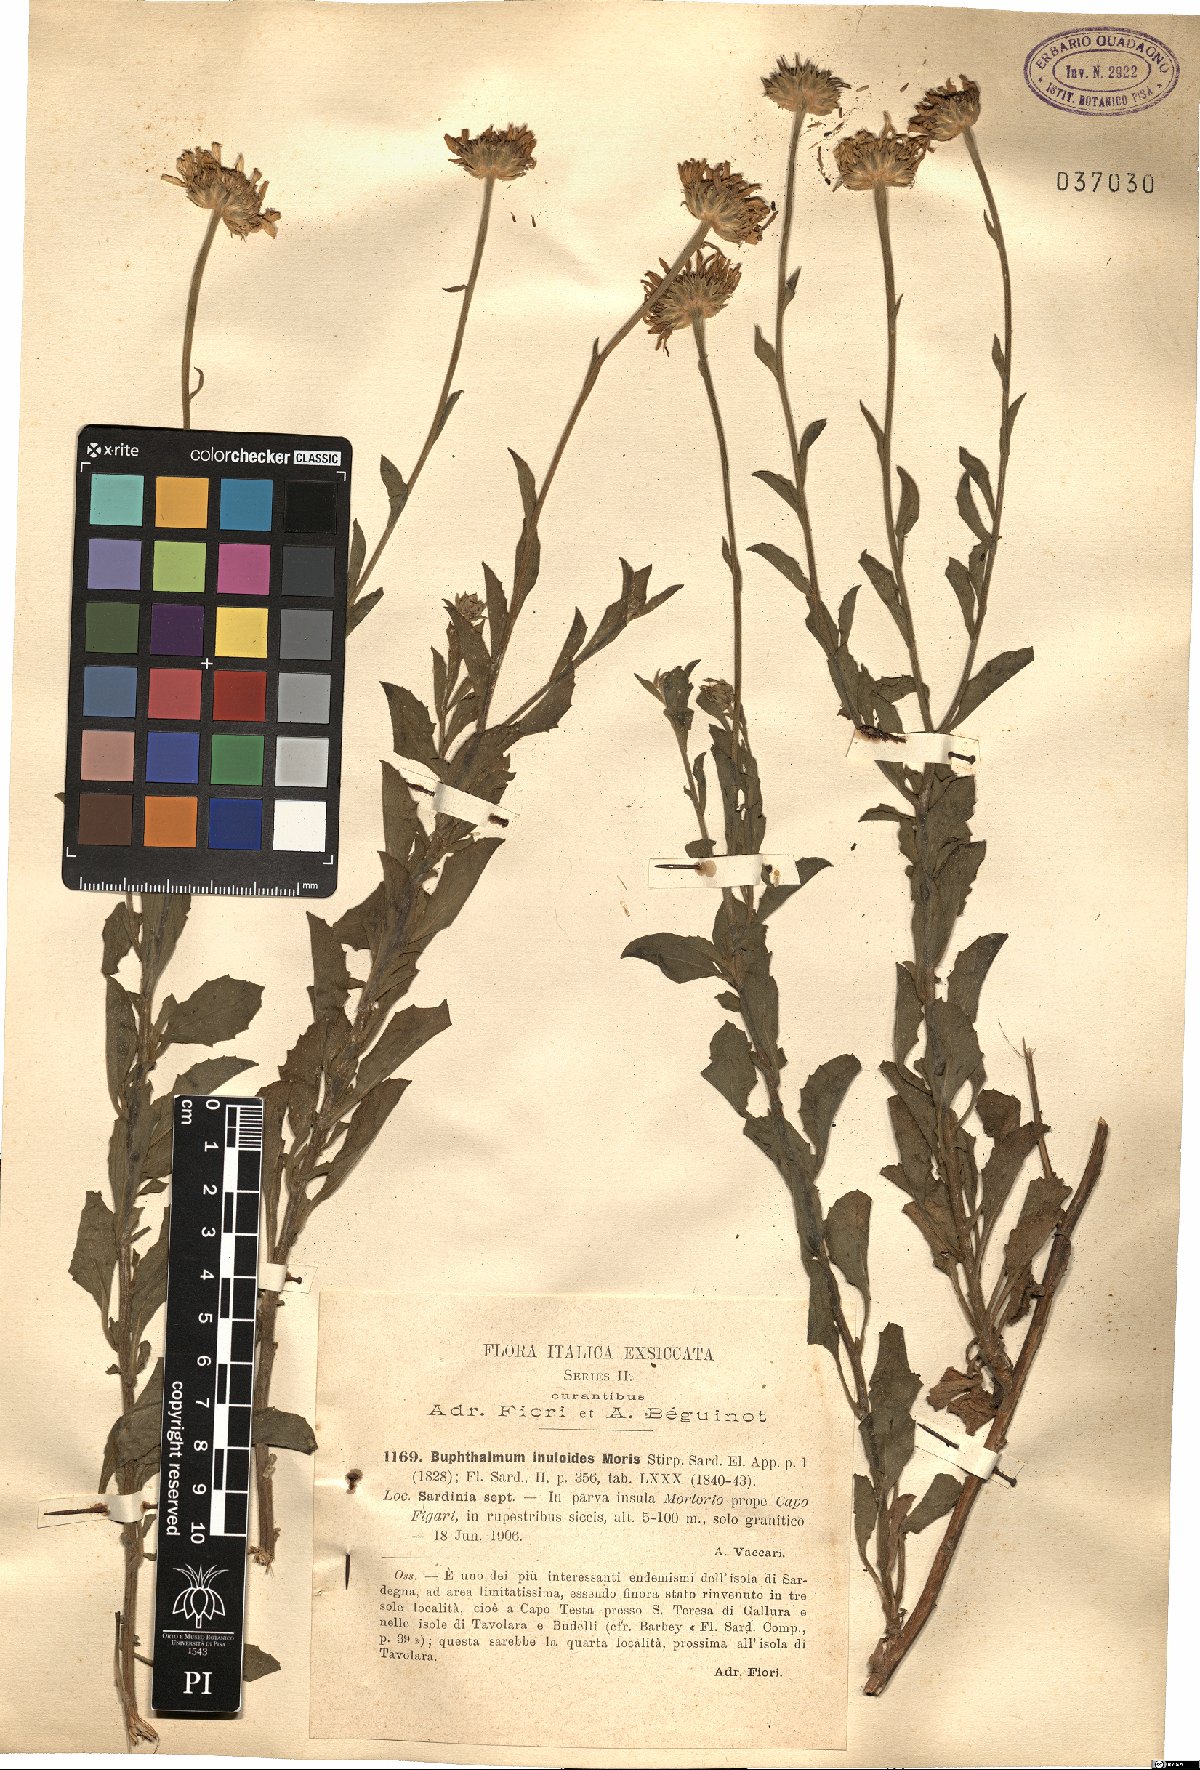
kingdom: Plantae
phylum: Tracheophyta
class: Magnoliopsida
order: Asterales
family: Asteraceae
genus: Buphthalmum
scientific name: Buphthalmum inuloides
